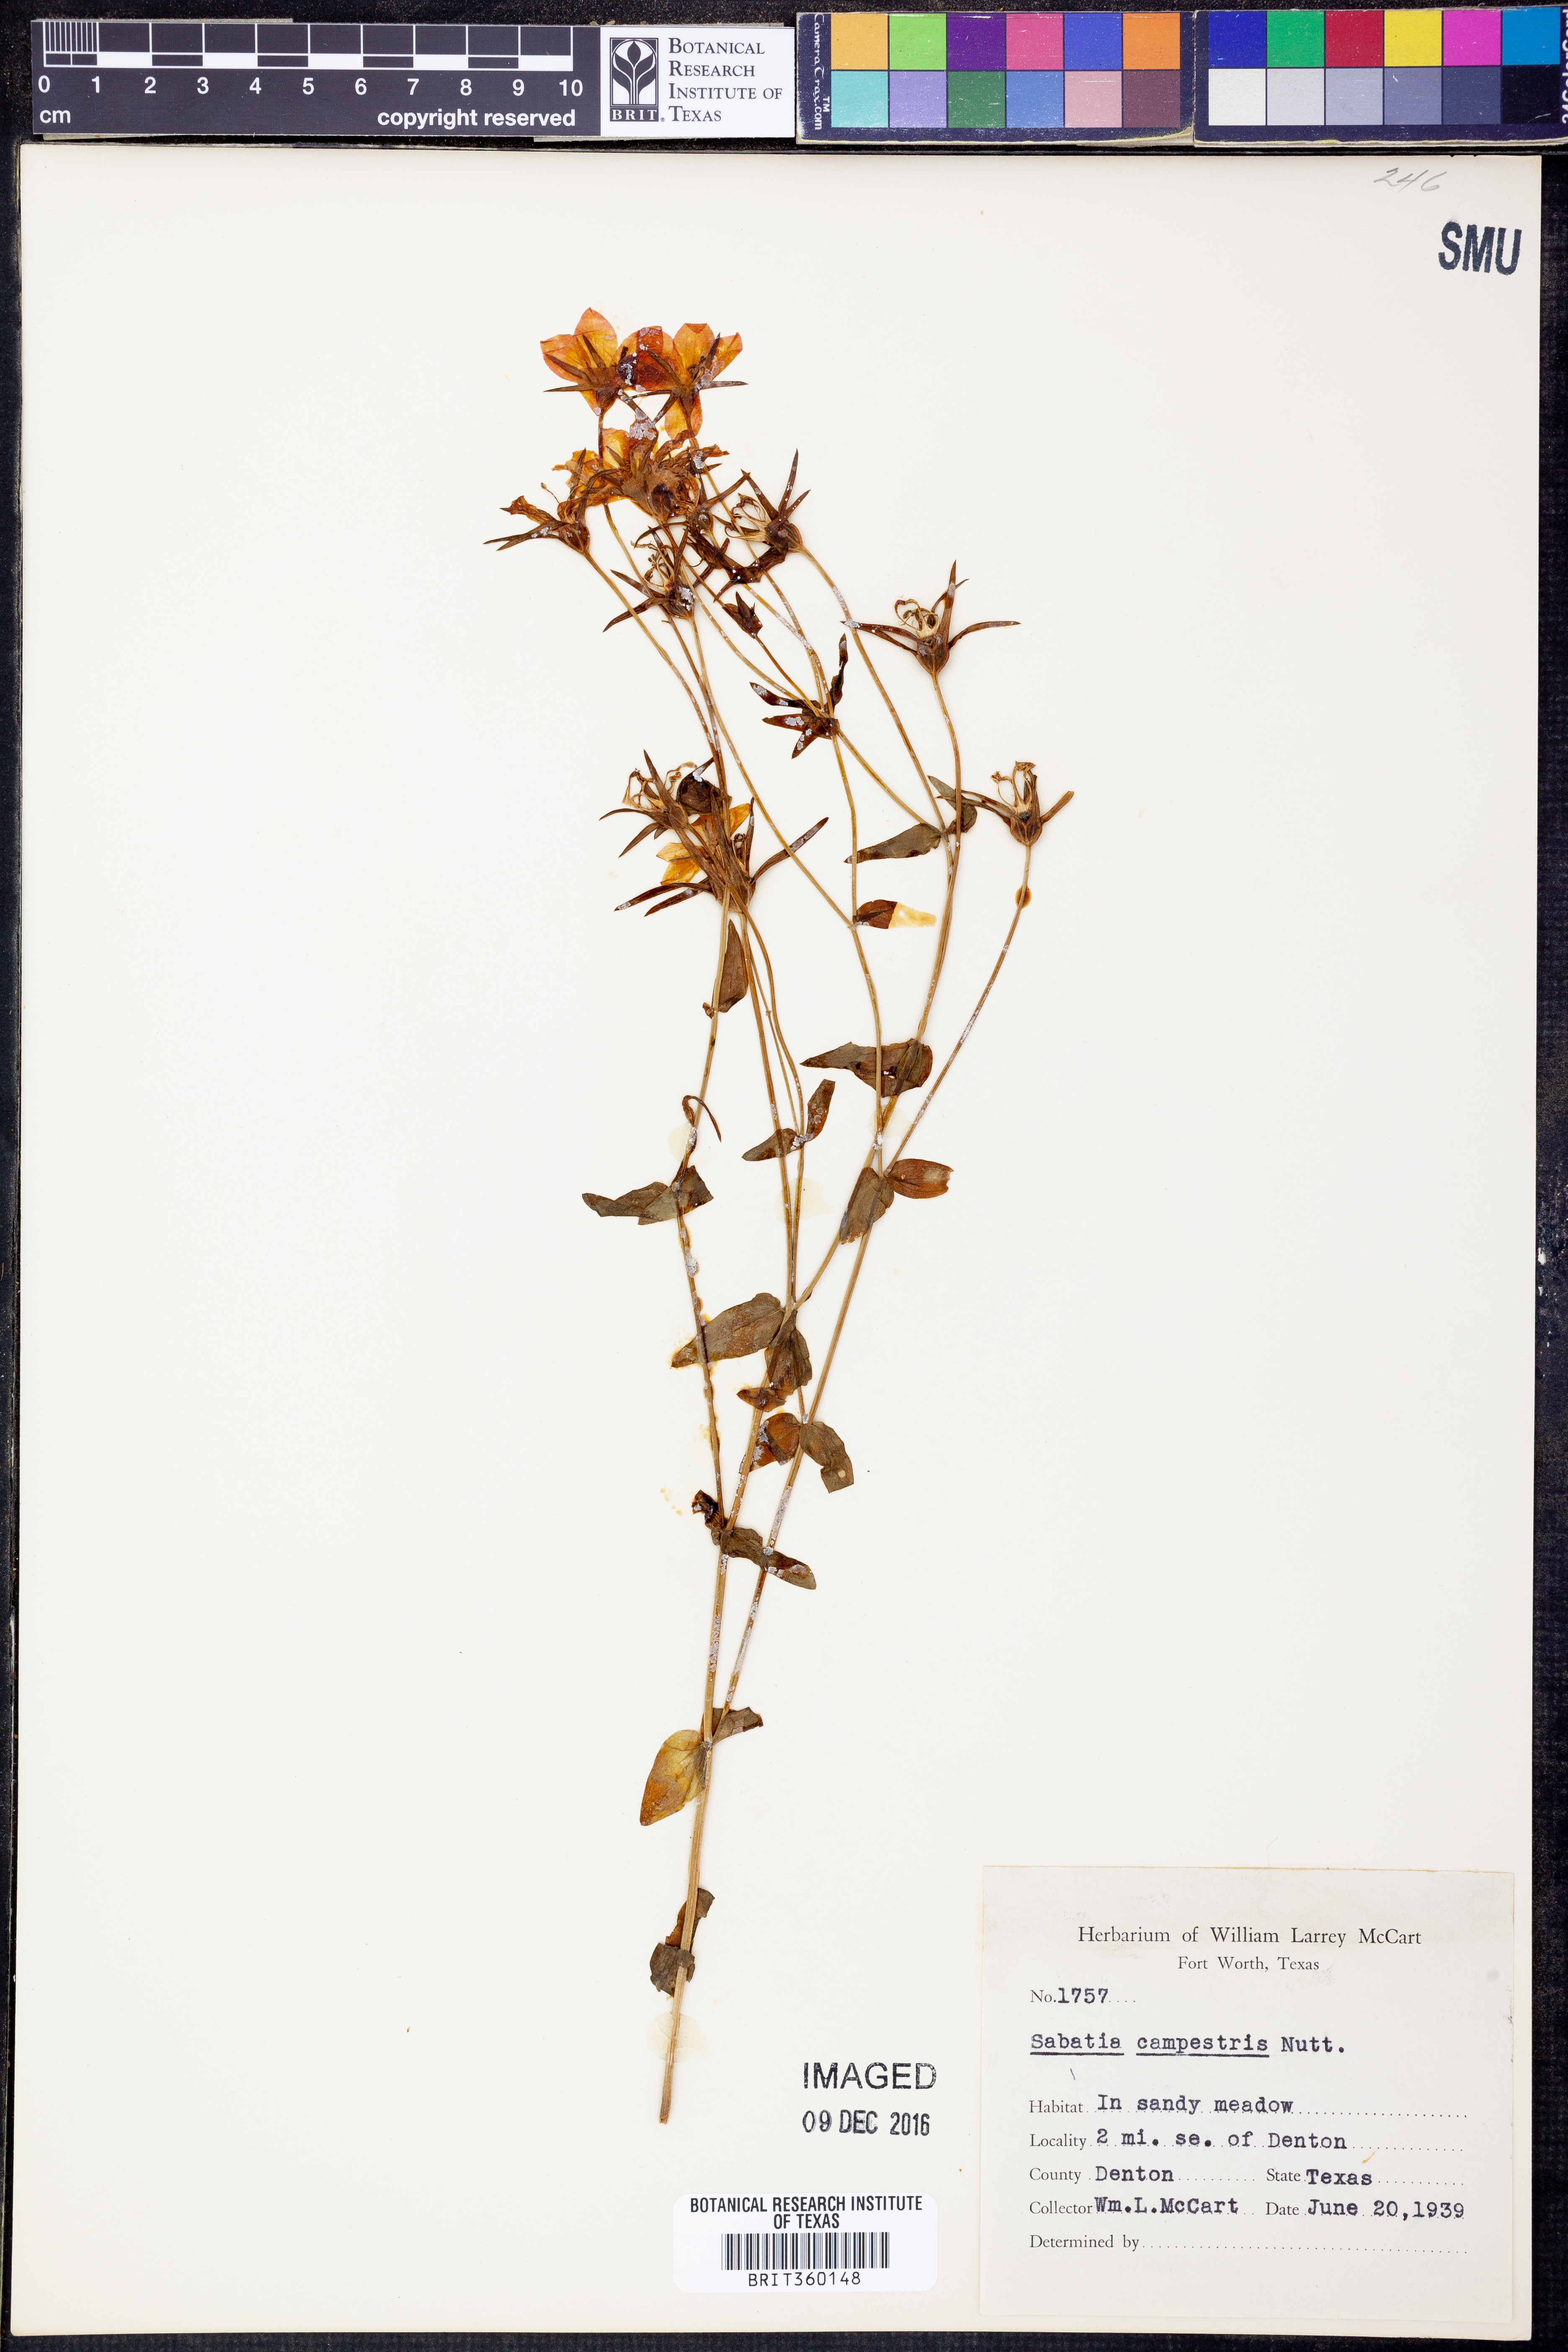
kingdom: Plantae
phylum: Tracheophyta
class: Magnoliopsida
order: Gentianales
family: Gentianaceae
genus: Sabatia
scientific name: Sabatia campestris
